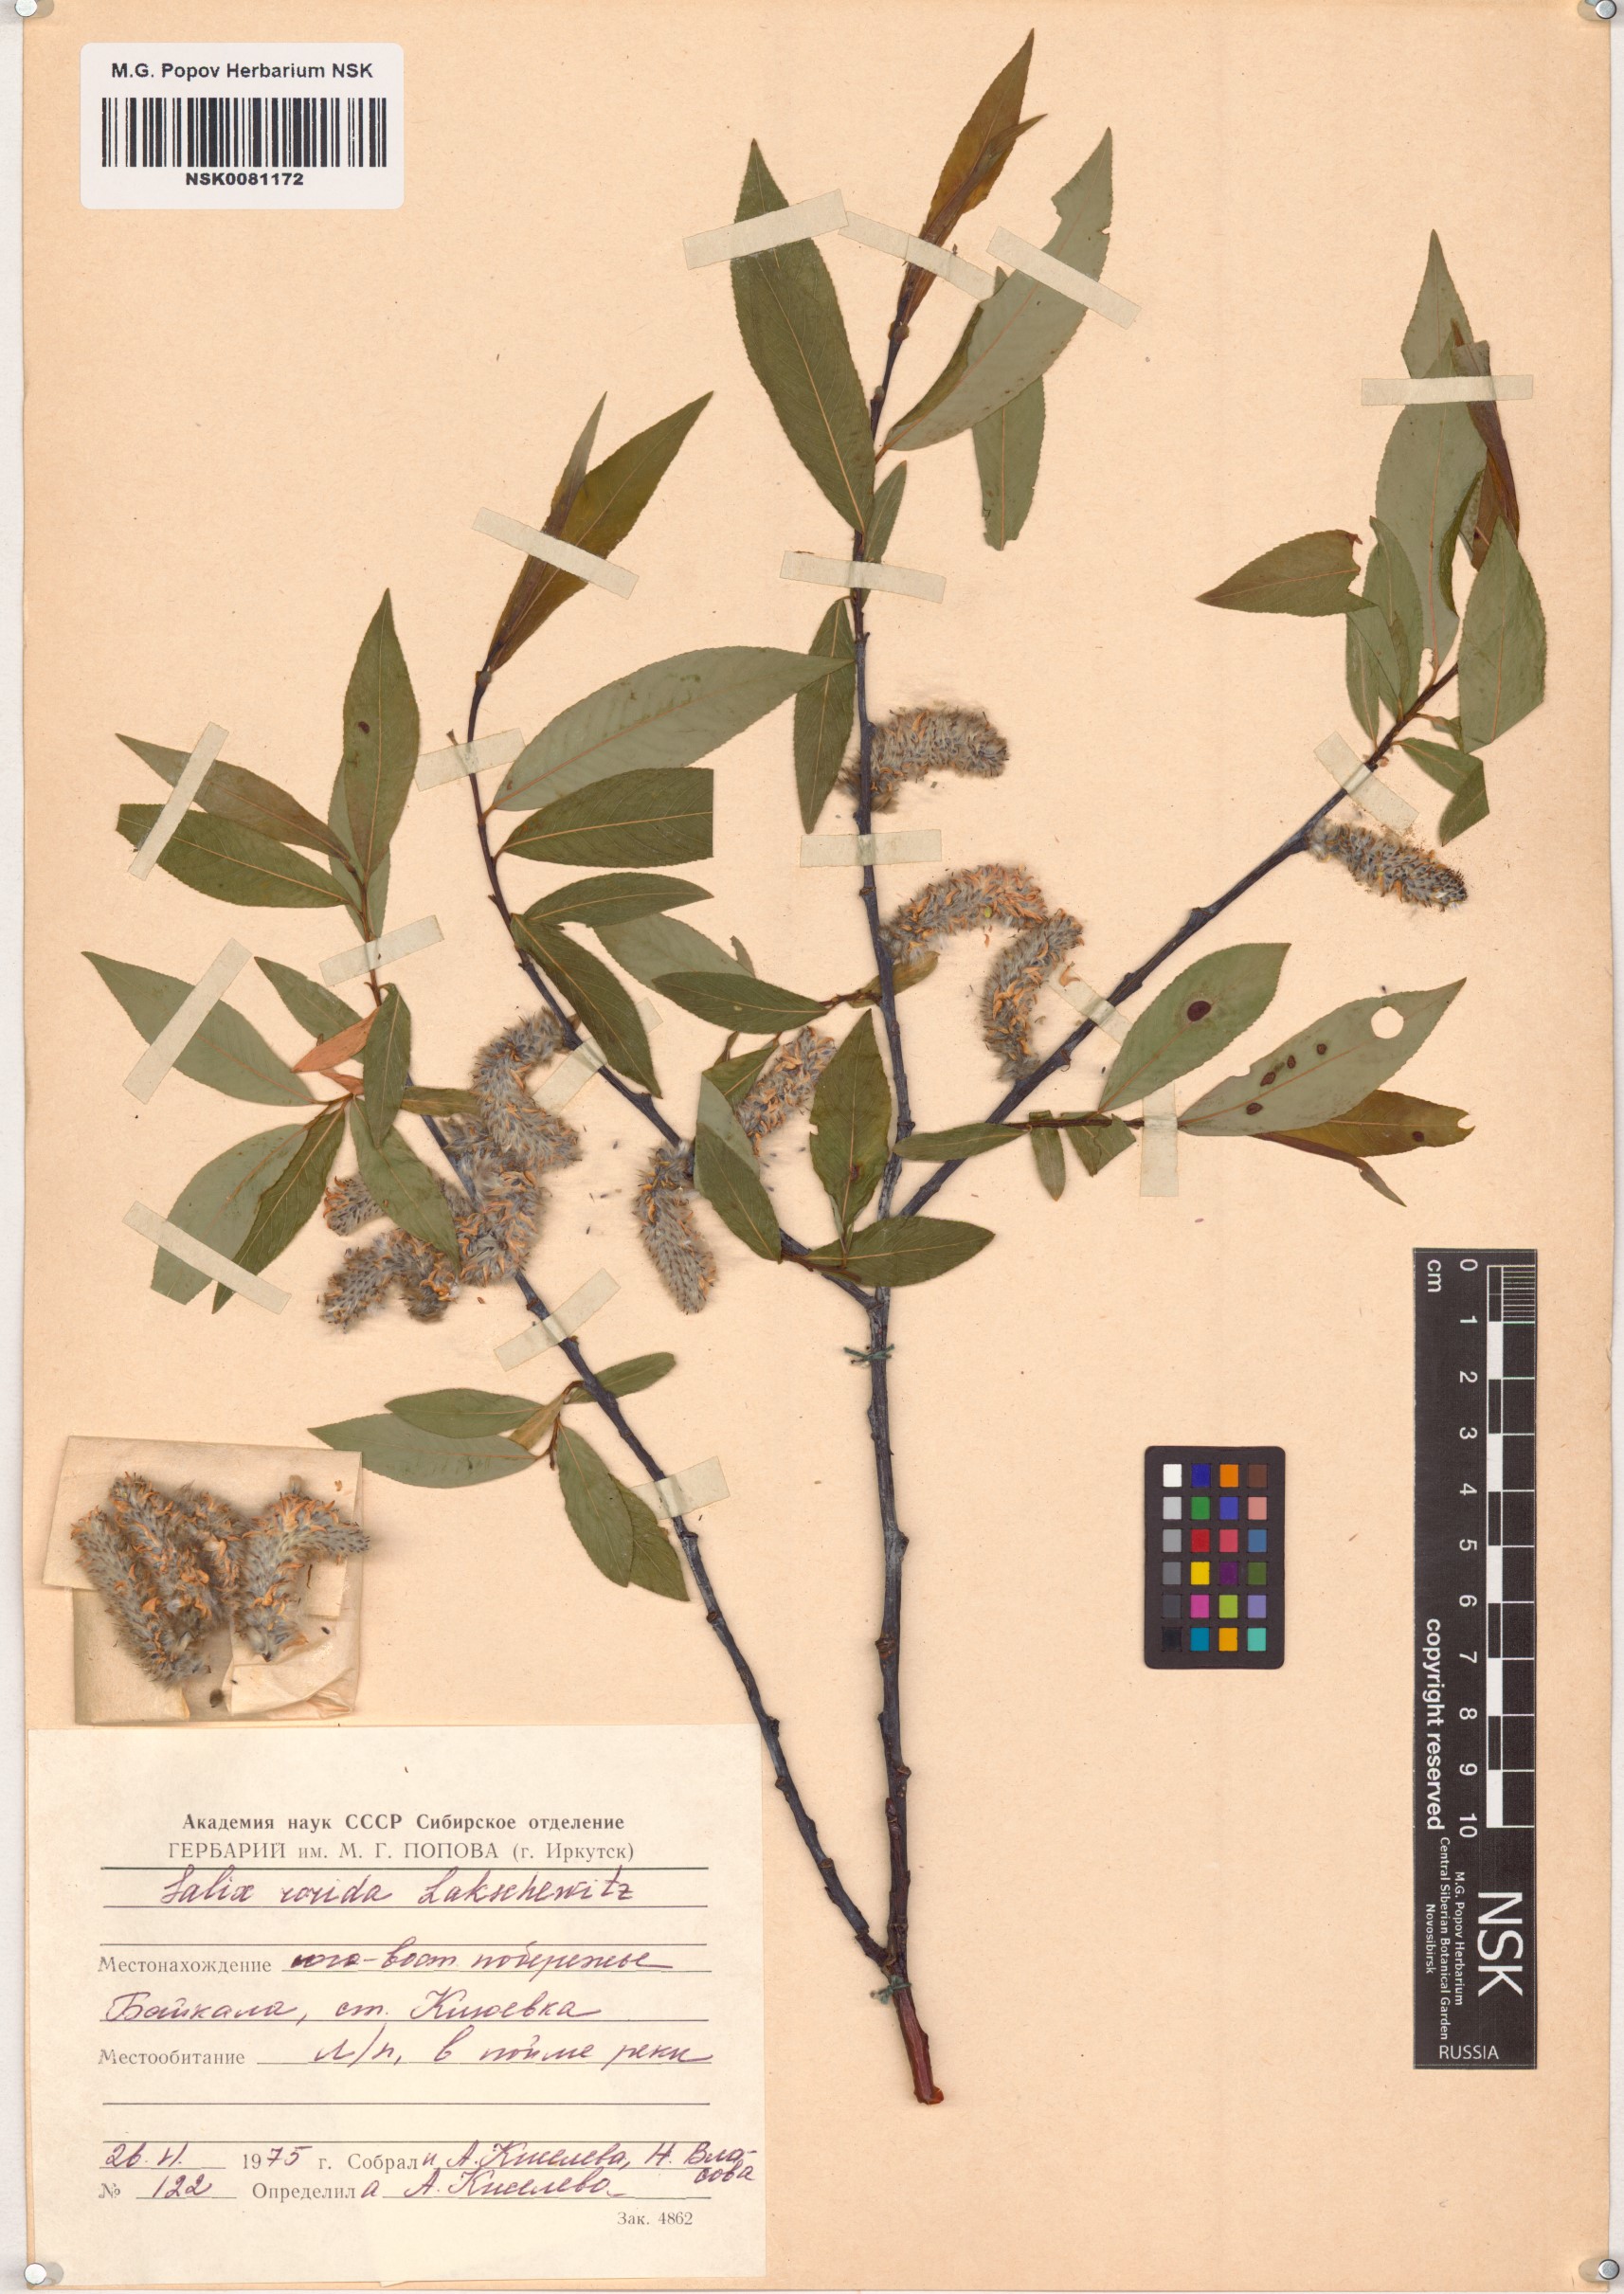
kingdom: Plantae
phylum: Tracheophyta
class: Magnoliopsida
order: Malpighiales
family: Salicaceae
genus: Salix
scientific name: Salix rorida
